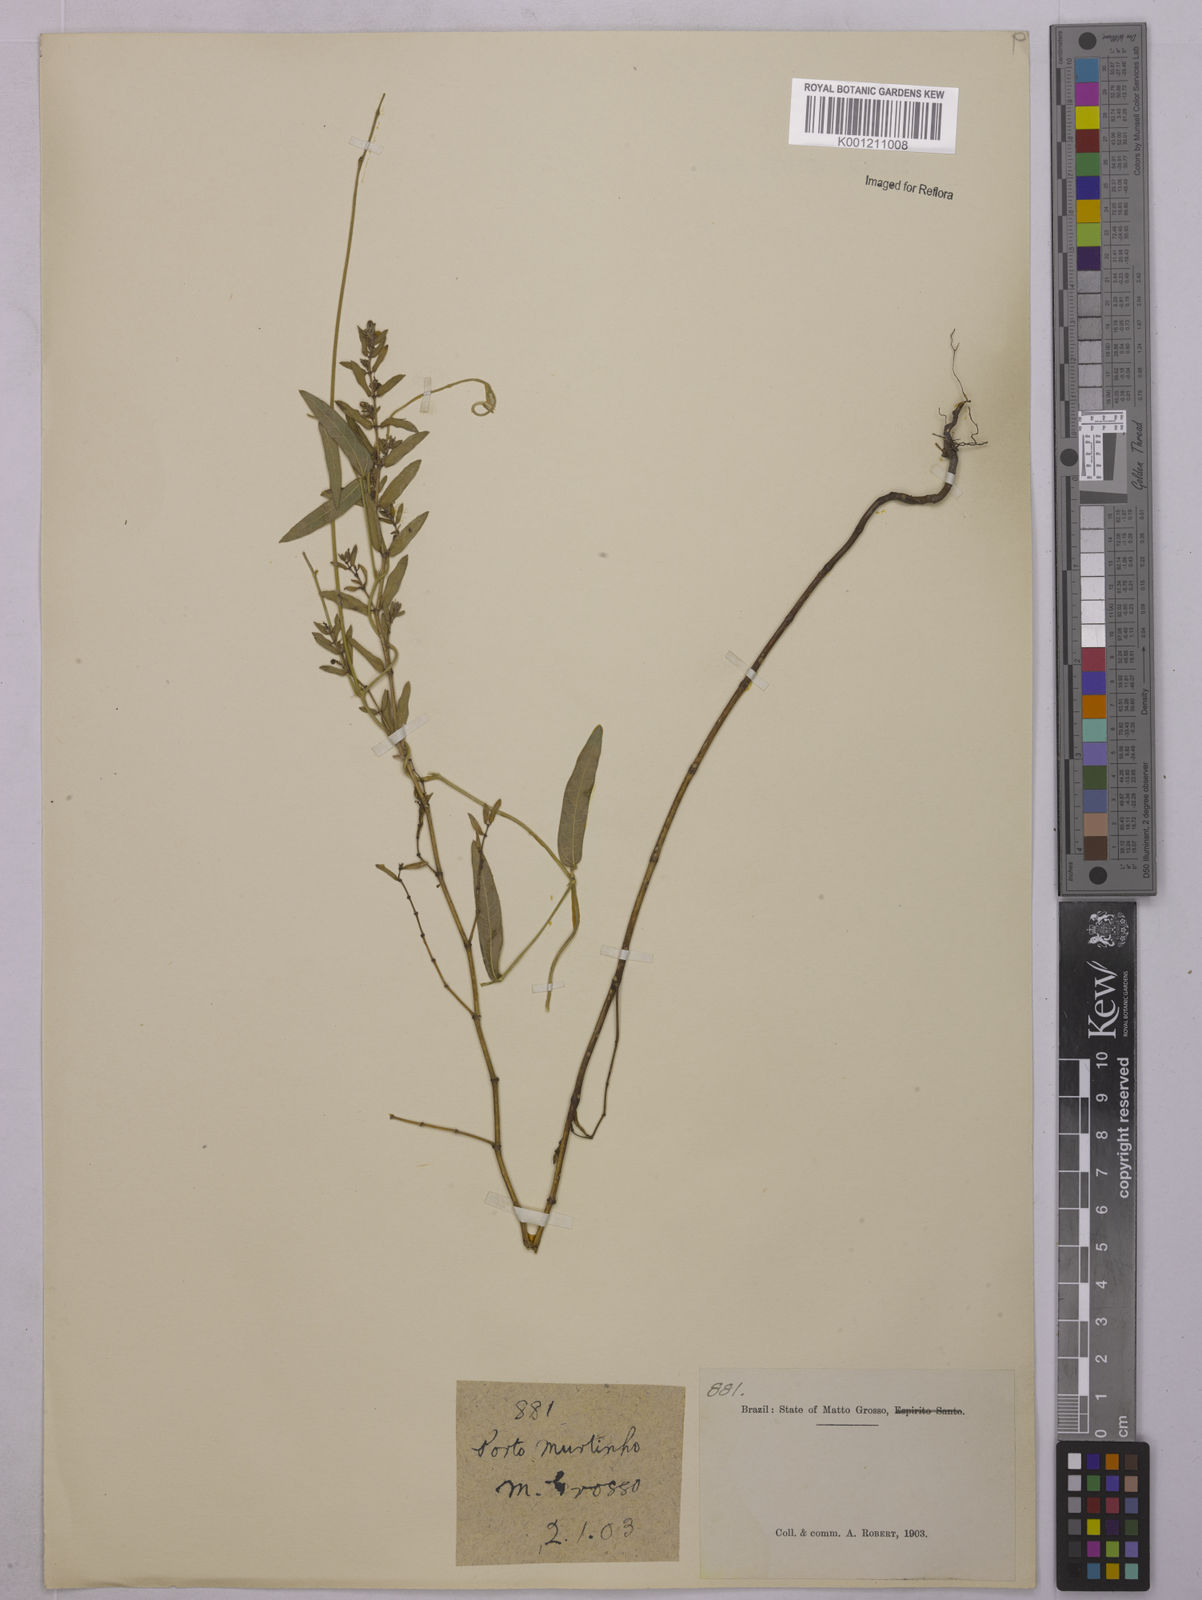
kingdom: Plantae
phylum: Tracheophyta
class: Magnoliopsida
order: Malpighiales
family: Euphorbiaceae
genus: Euphorbia
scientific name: Euphorbia
